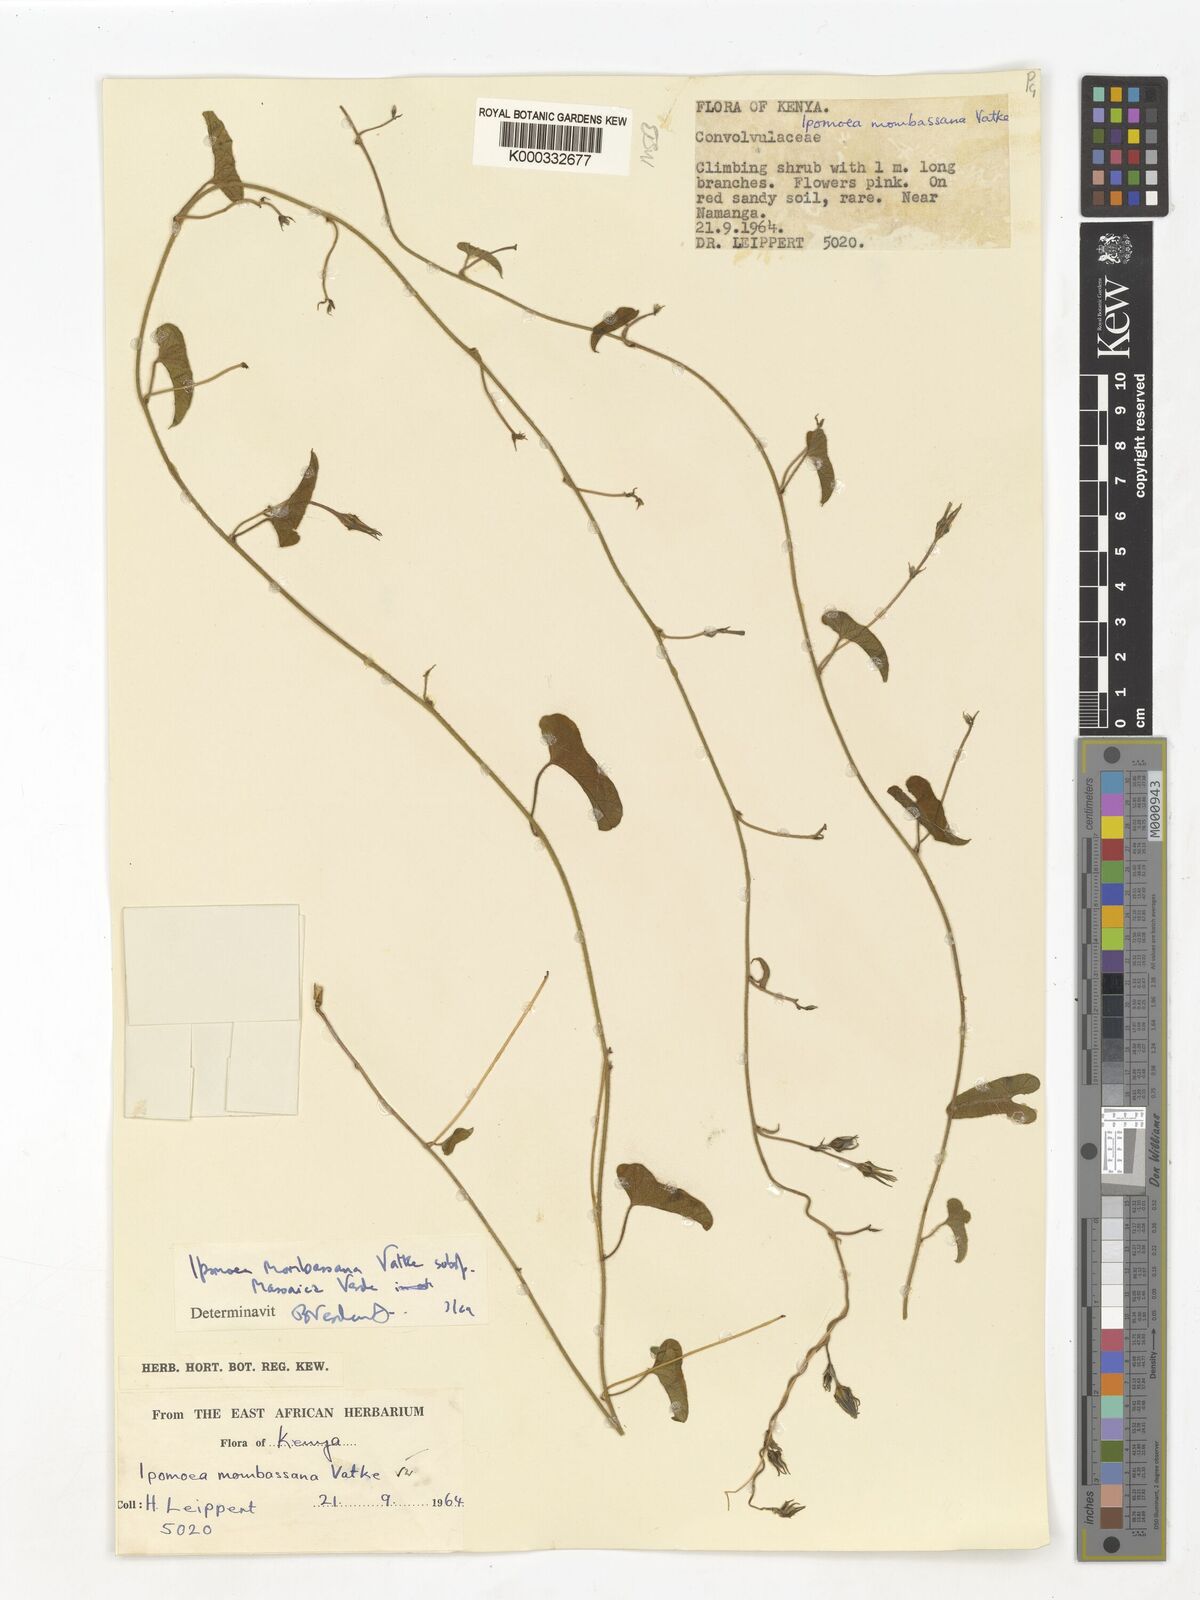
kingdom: Plantae
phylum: Tracheophyta
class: Magnoliopsida
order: Solanales
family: Convolvulaceae
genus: Ipomoea
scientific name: Ipomoea mombassana
